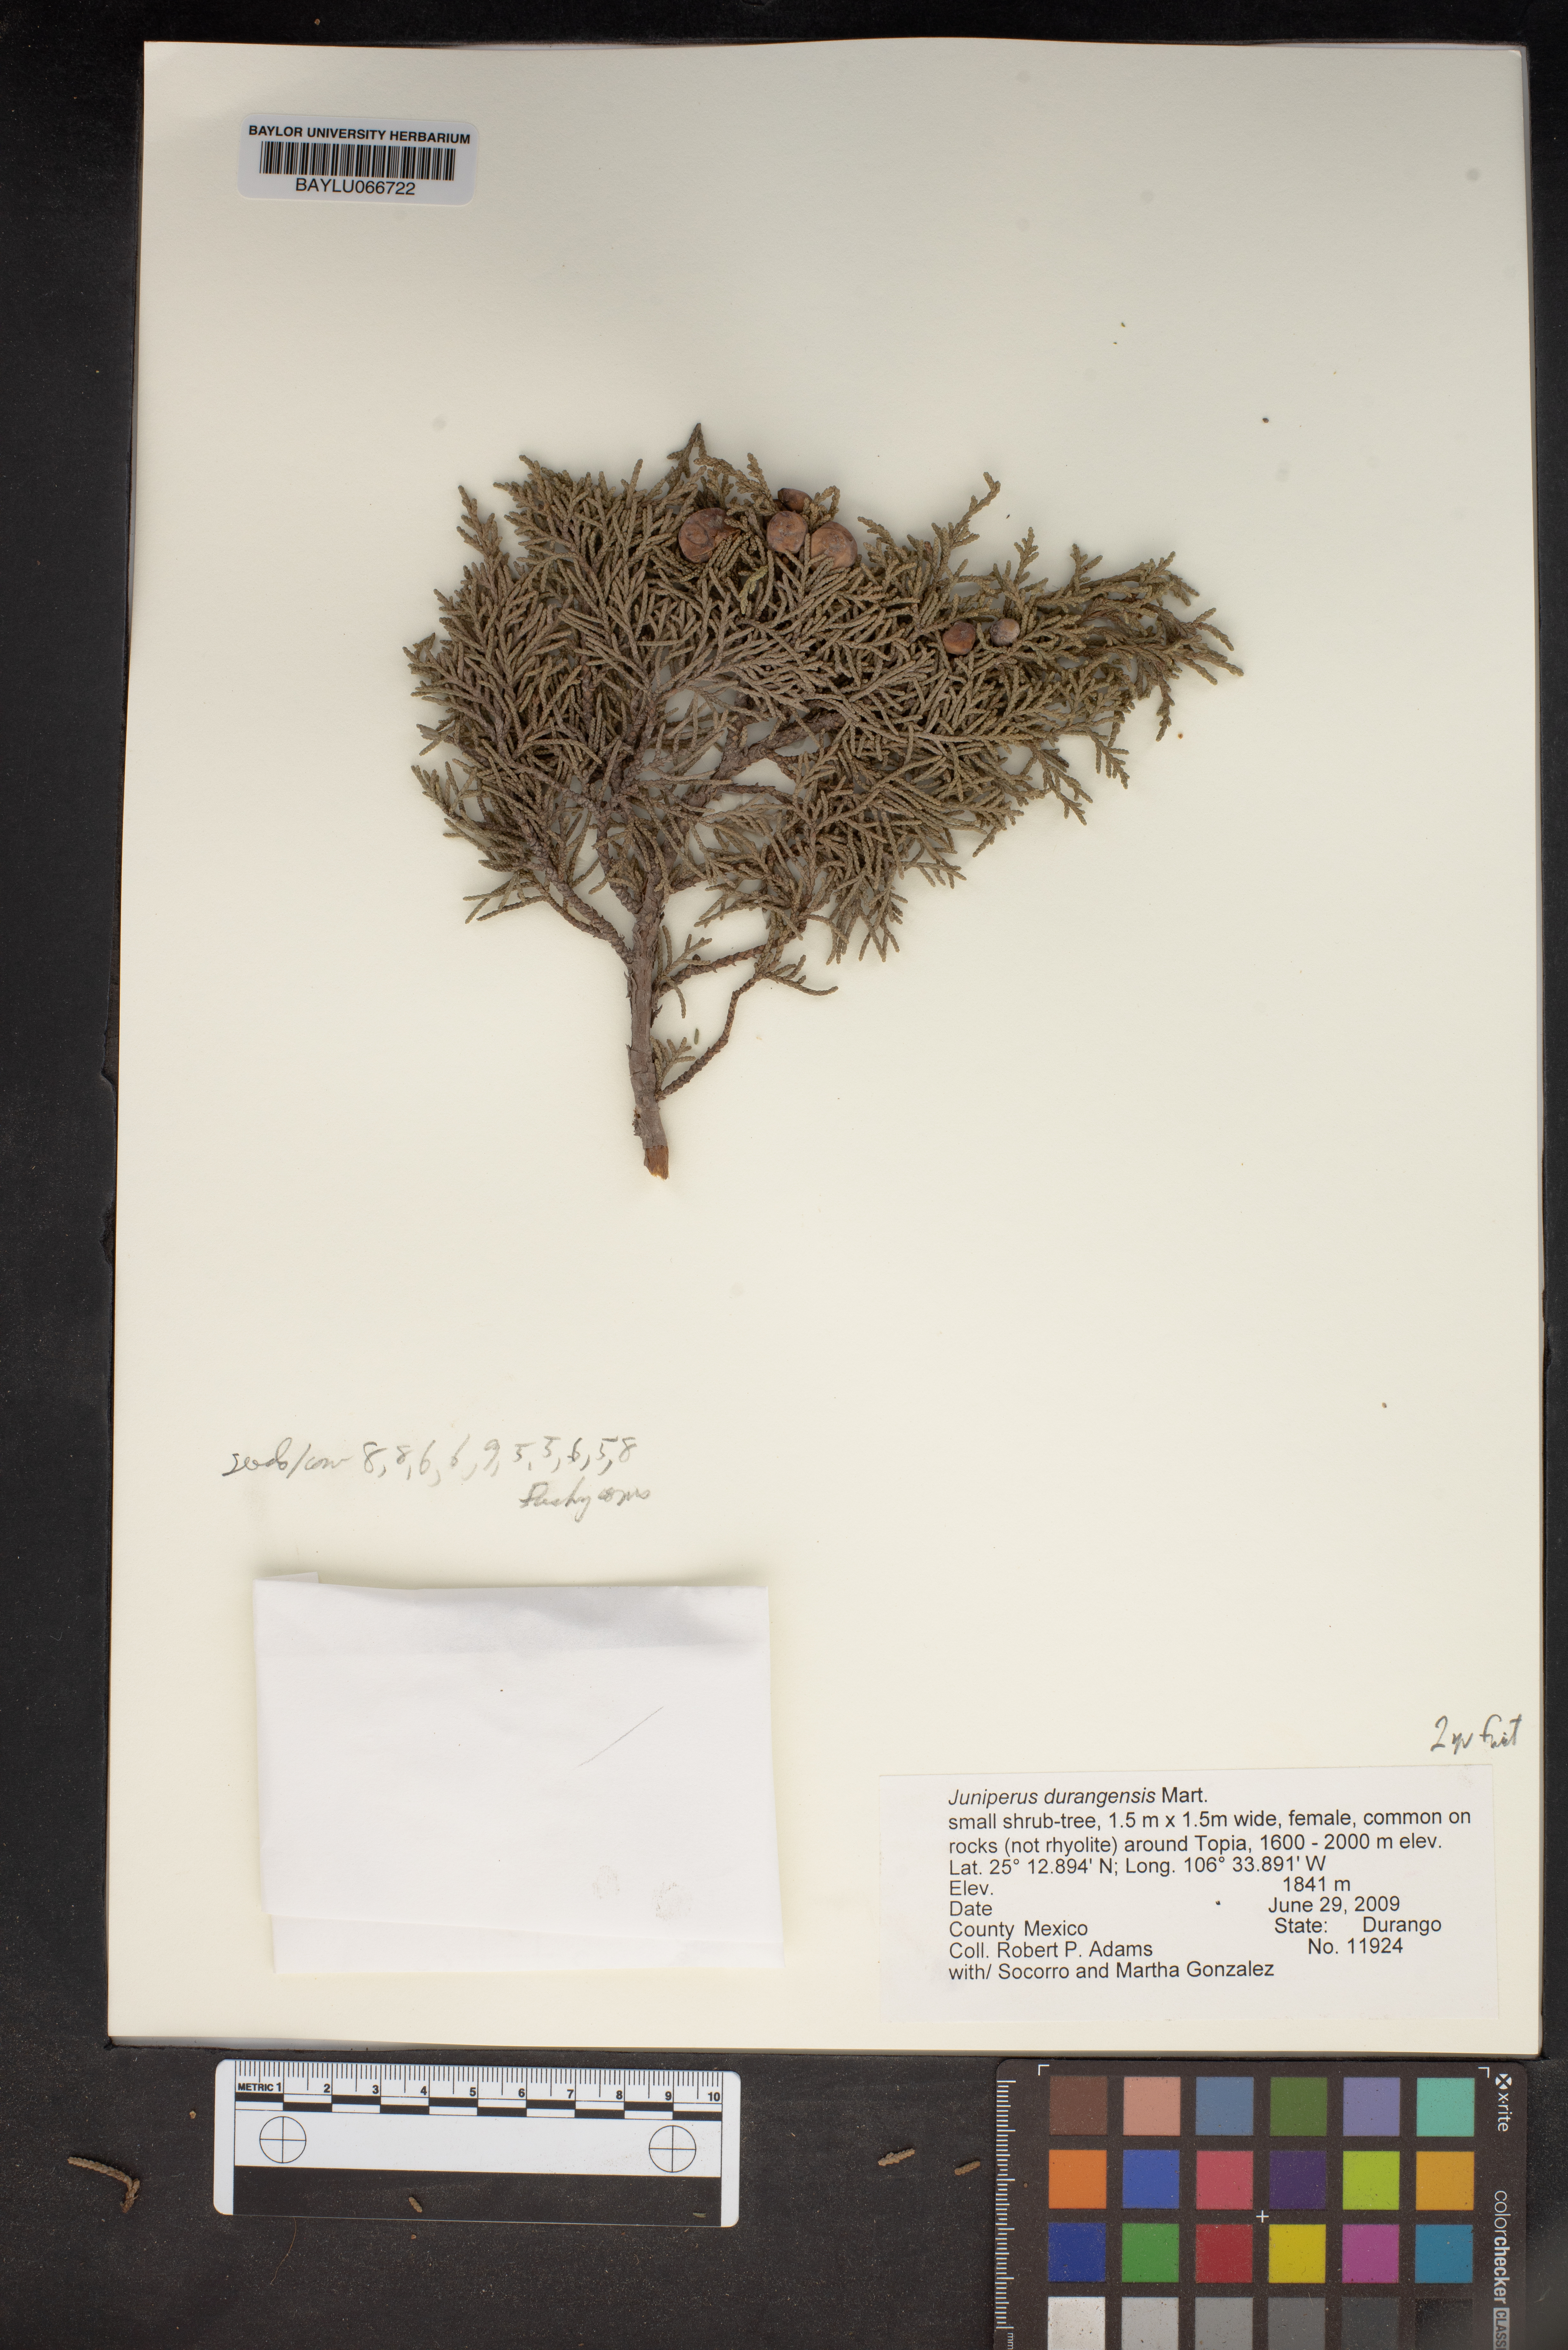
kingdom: Plantae
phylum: Tracheophyta
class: Pinopsida
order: Pinales
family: Cupressaceae
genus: Juniperus
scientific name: Juniperus durangensis
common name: Durango juniper
